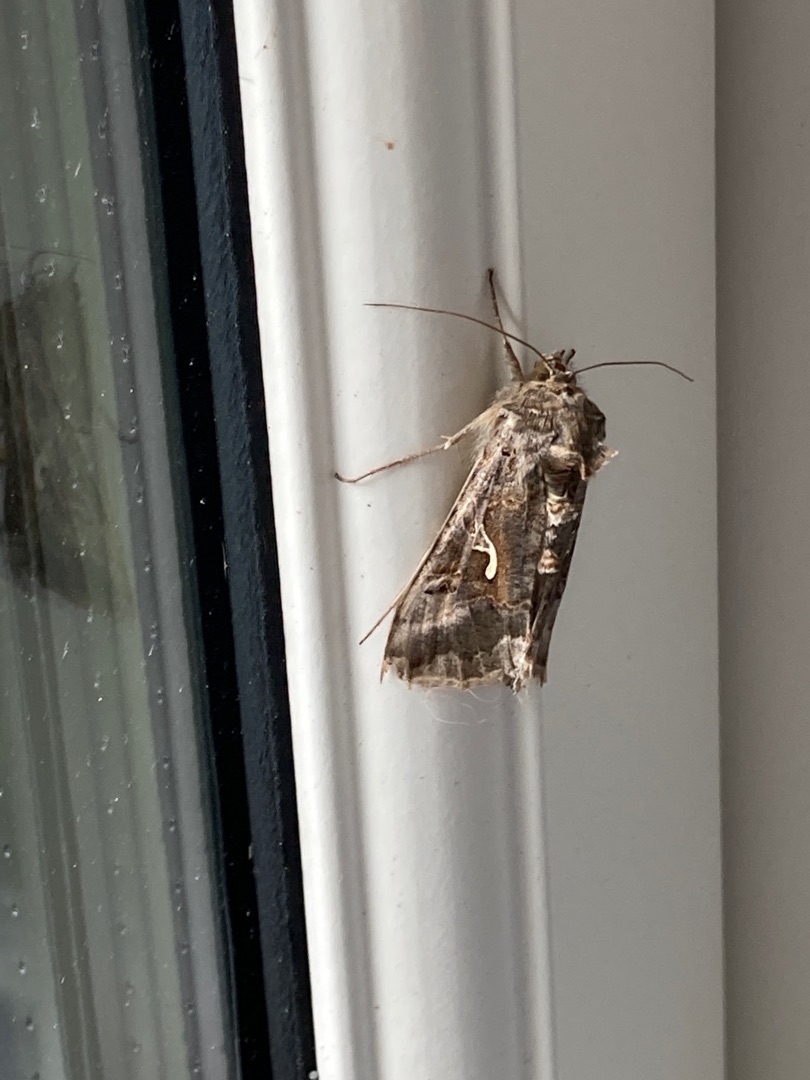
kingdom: Animalia
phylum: Arthropoda
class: Insecta
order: Lepidoptera
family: Noctuidae
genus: Autographa
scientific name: Autographa gamma
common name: Gammaugle
